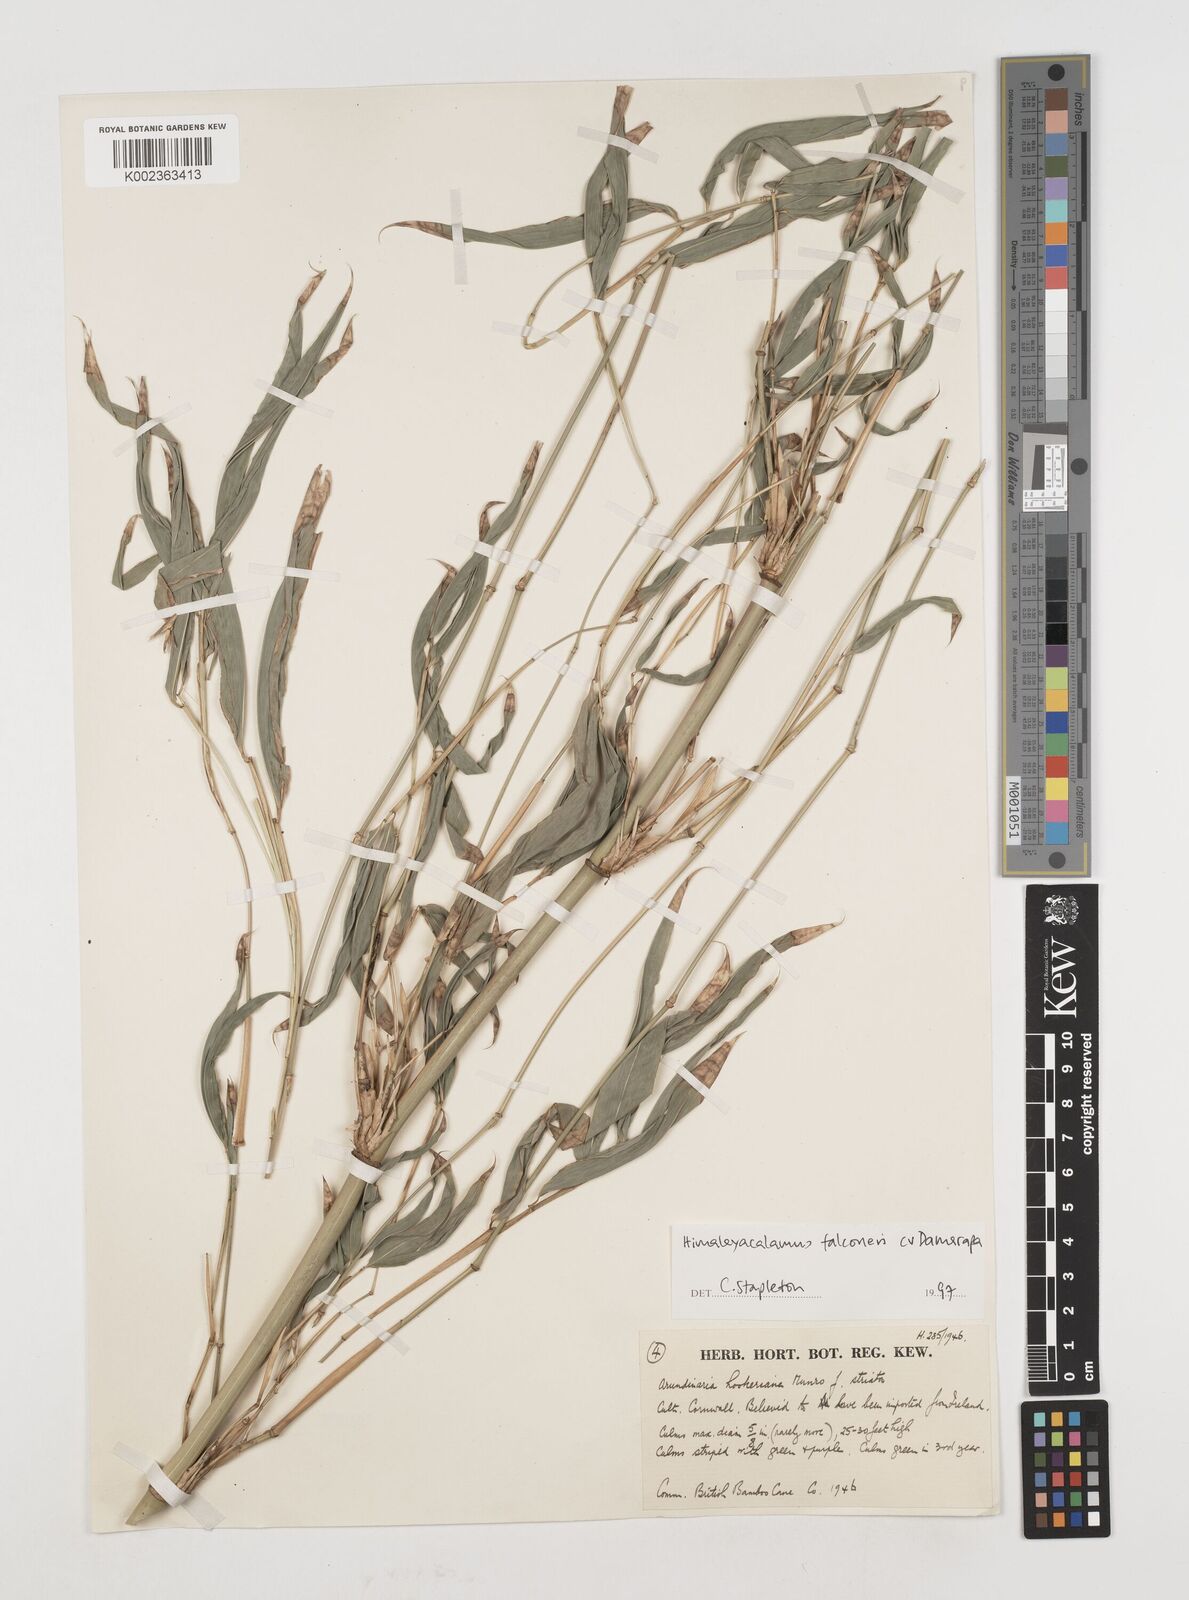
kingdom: Plantae
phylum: Tracheophyta
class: Liliopsida
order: Poales
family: Poaceae
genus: Himalayacalamus
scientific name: Himalayacalamus falconeri
